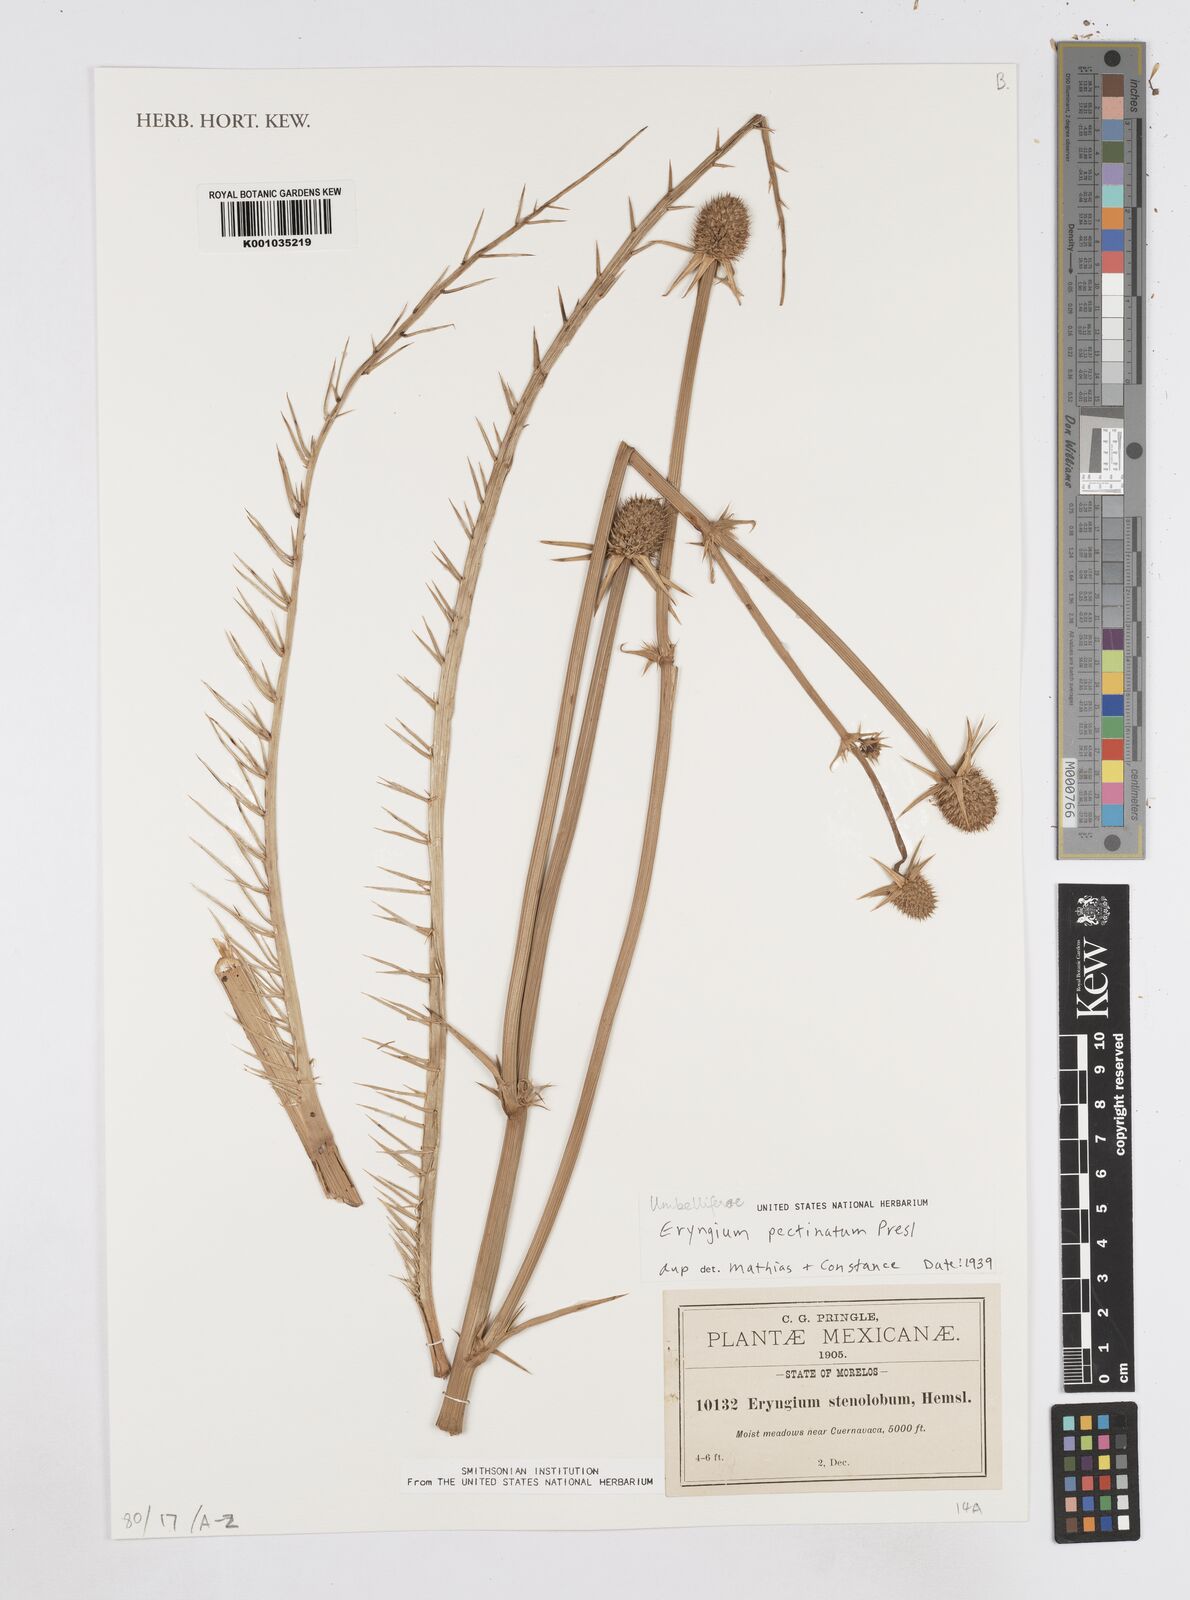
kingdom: Plantae
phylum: Tracheophyta
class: Magnoliopsida
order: Apiales
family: Apiaceae
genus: Eryngium
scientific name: Eryngium monocephalum
